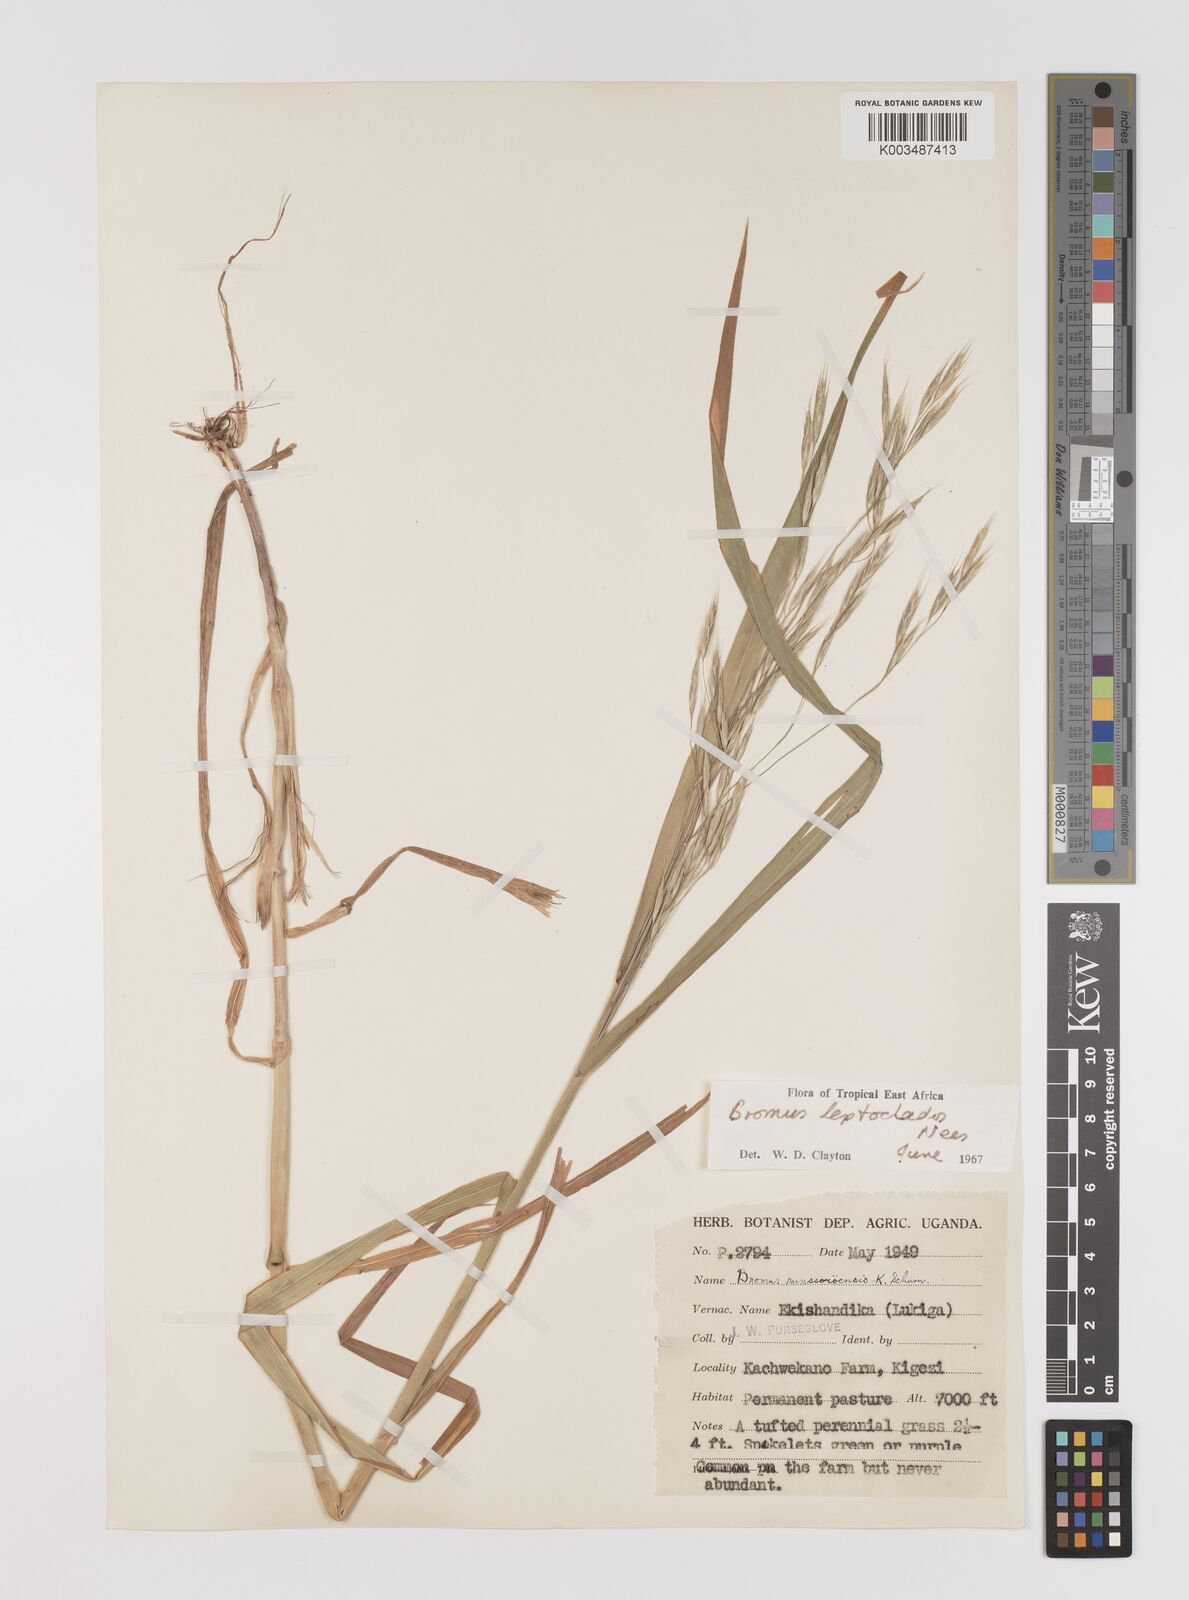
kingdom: Plantae
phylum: Tracheophyta
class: Liliopsida
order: Poales
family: Poaceae
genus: Bromus
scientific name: Bromus leptoclados
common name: Mountain bromegrass
